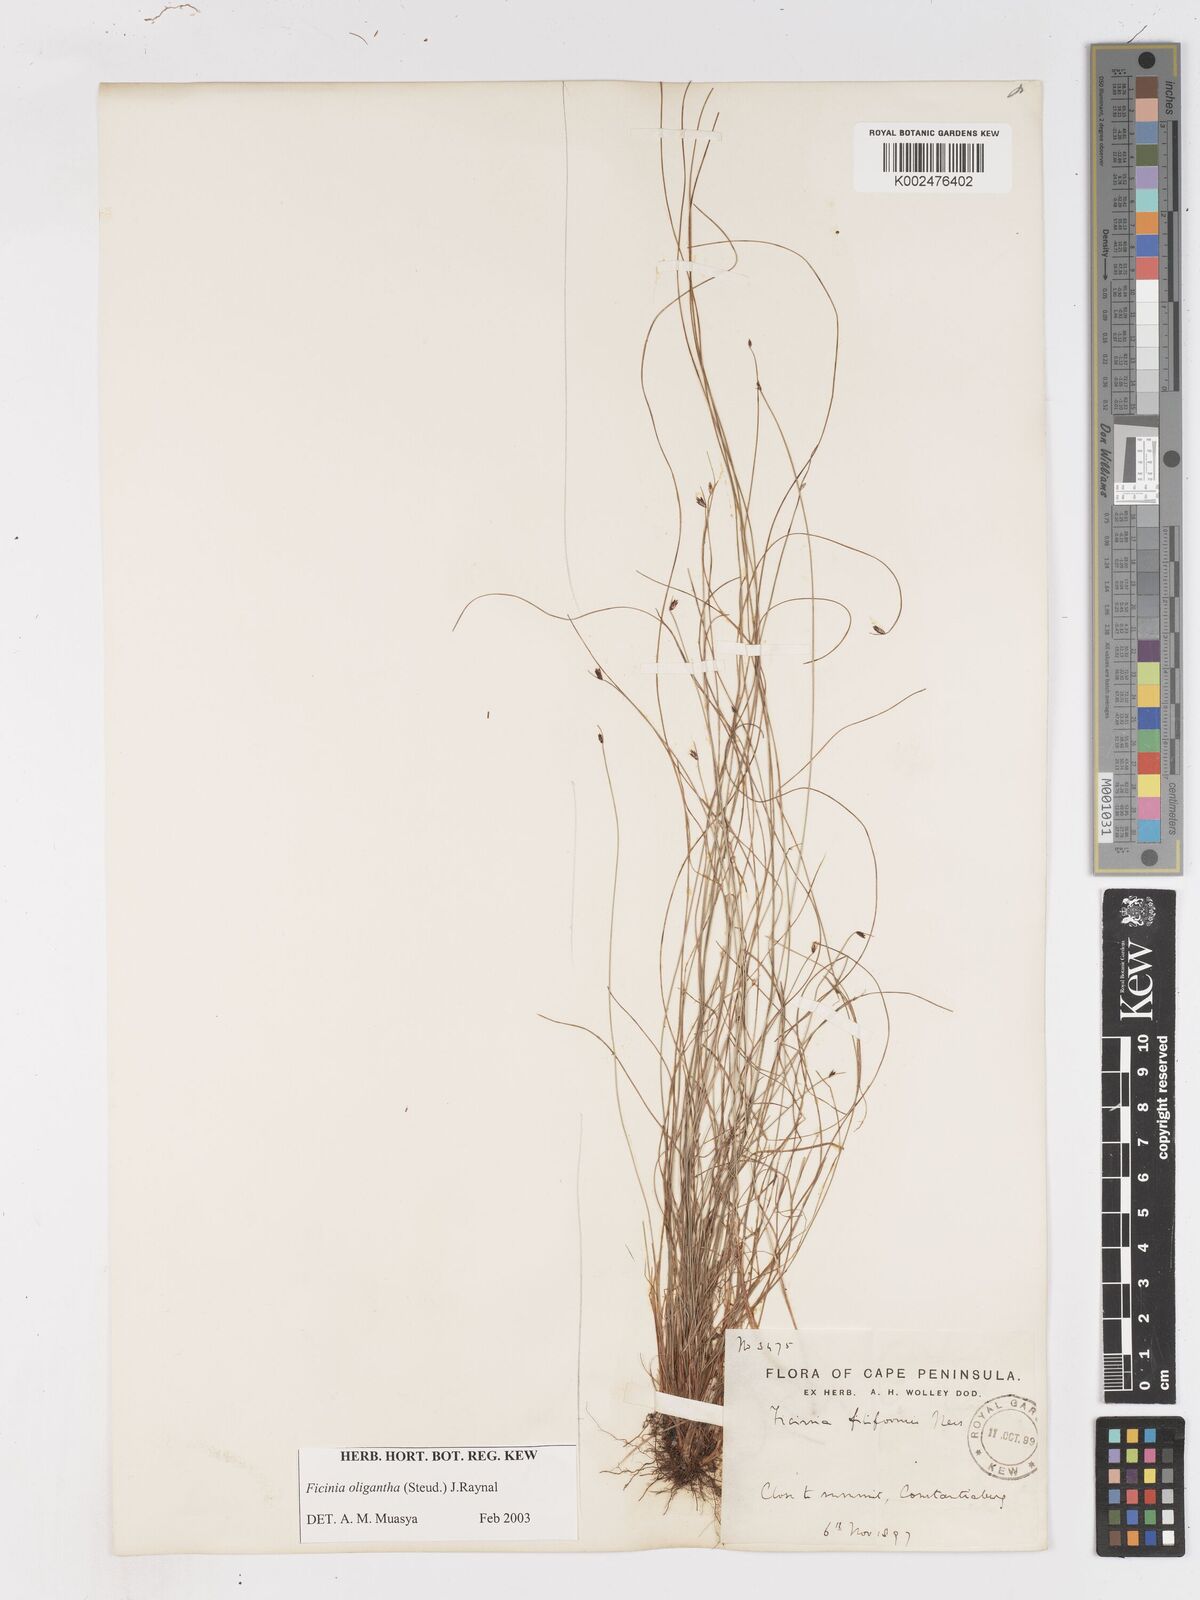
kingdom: Plantae
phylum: Tracheophyta
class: Liliopsida
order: Poales
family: Cyperaceae
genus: Ficinia
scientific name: Ficinia oligantha
